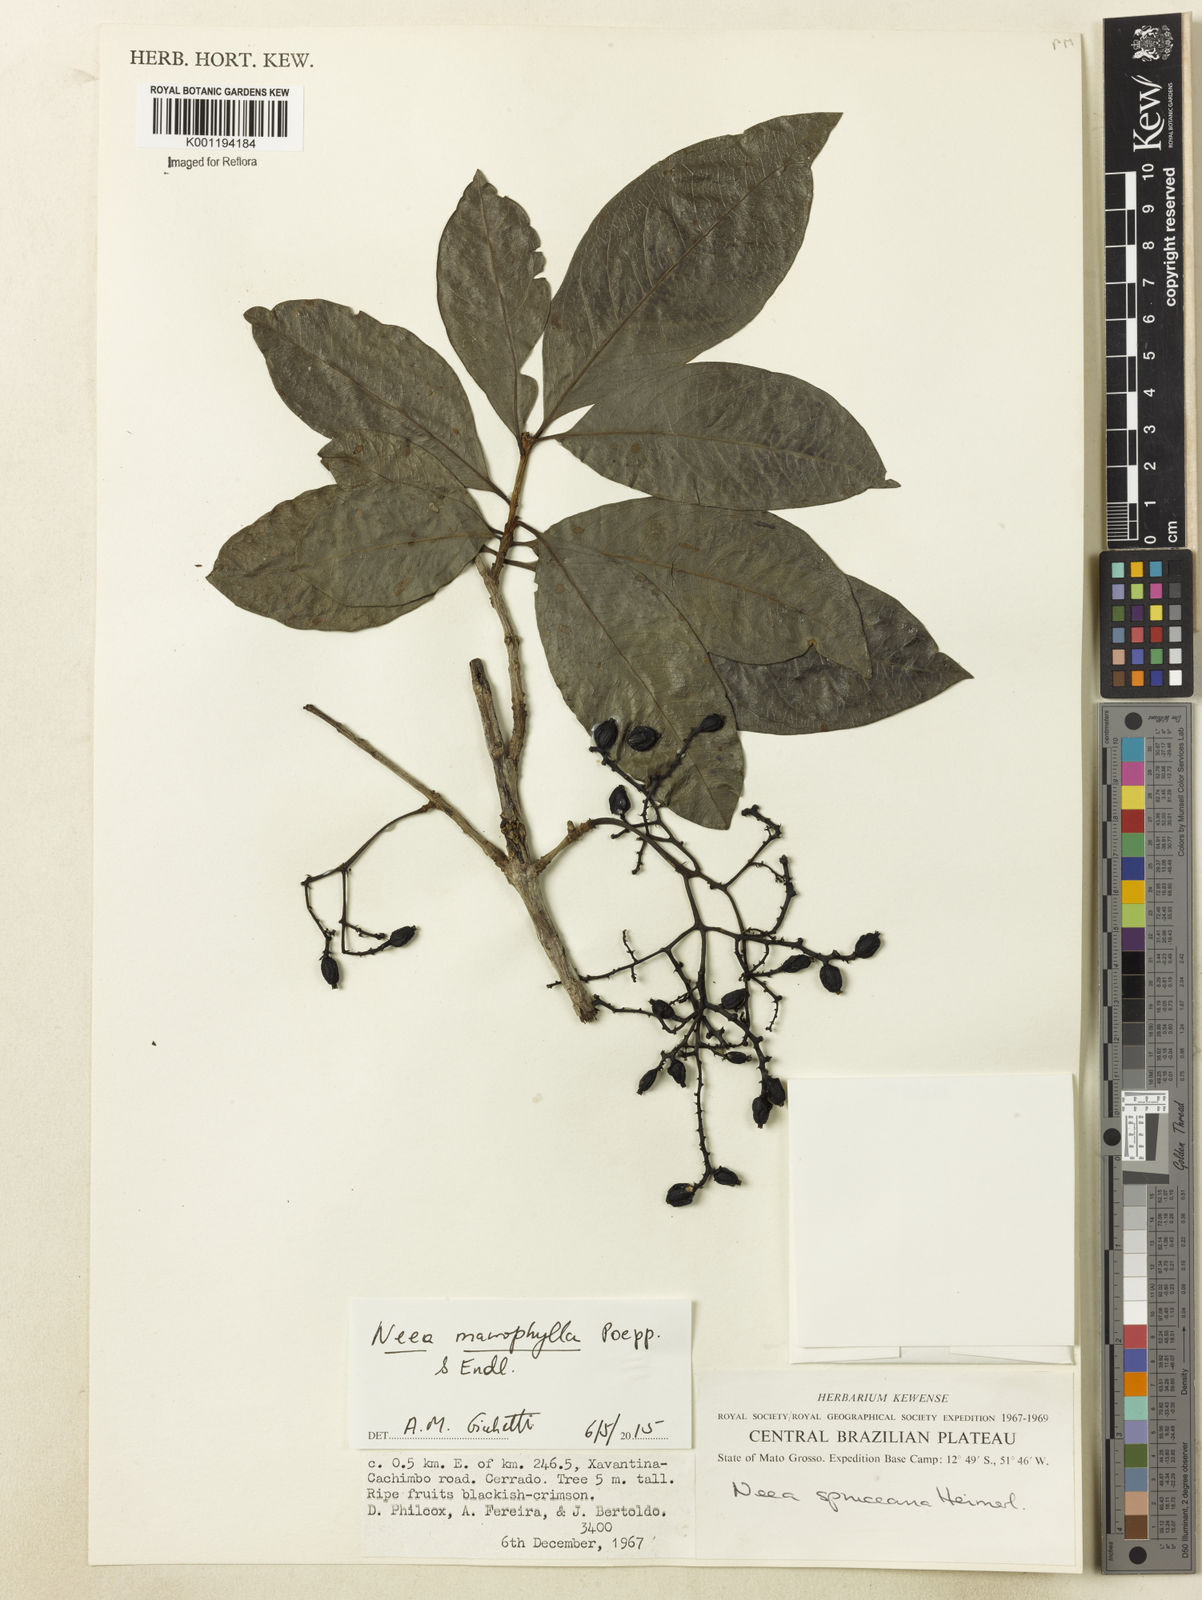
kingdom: Plantae
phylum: Tracheophyta
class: Magnoliopsida
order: Caryophyllales
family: Nyctaginaceae
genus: Neea
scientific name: Neea macrophylla
